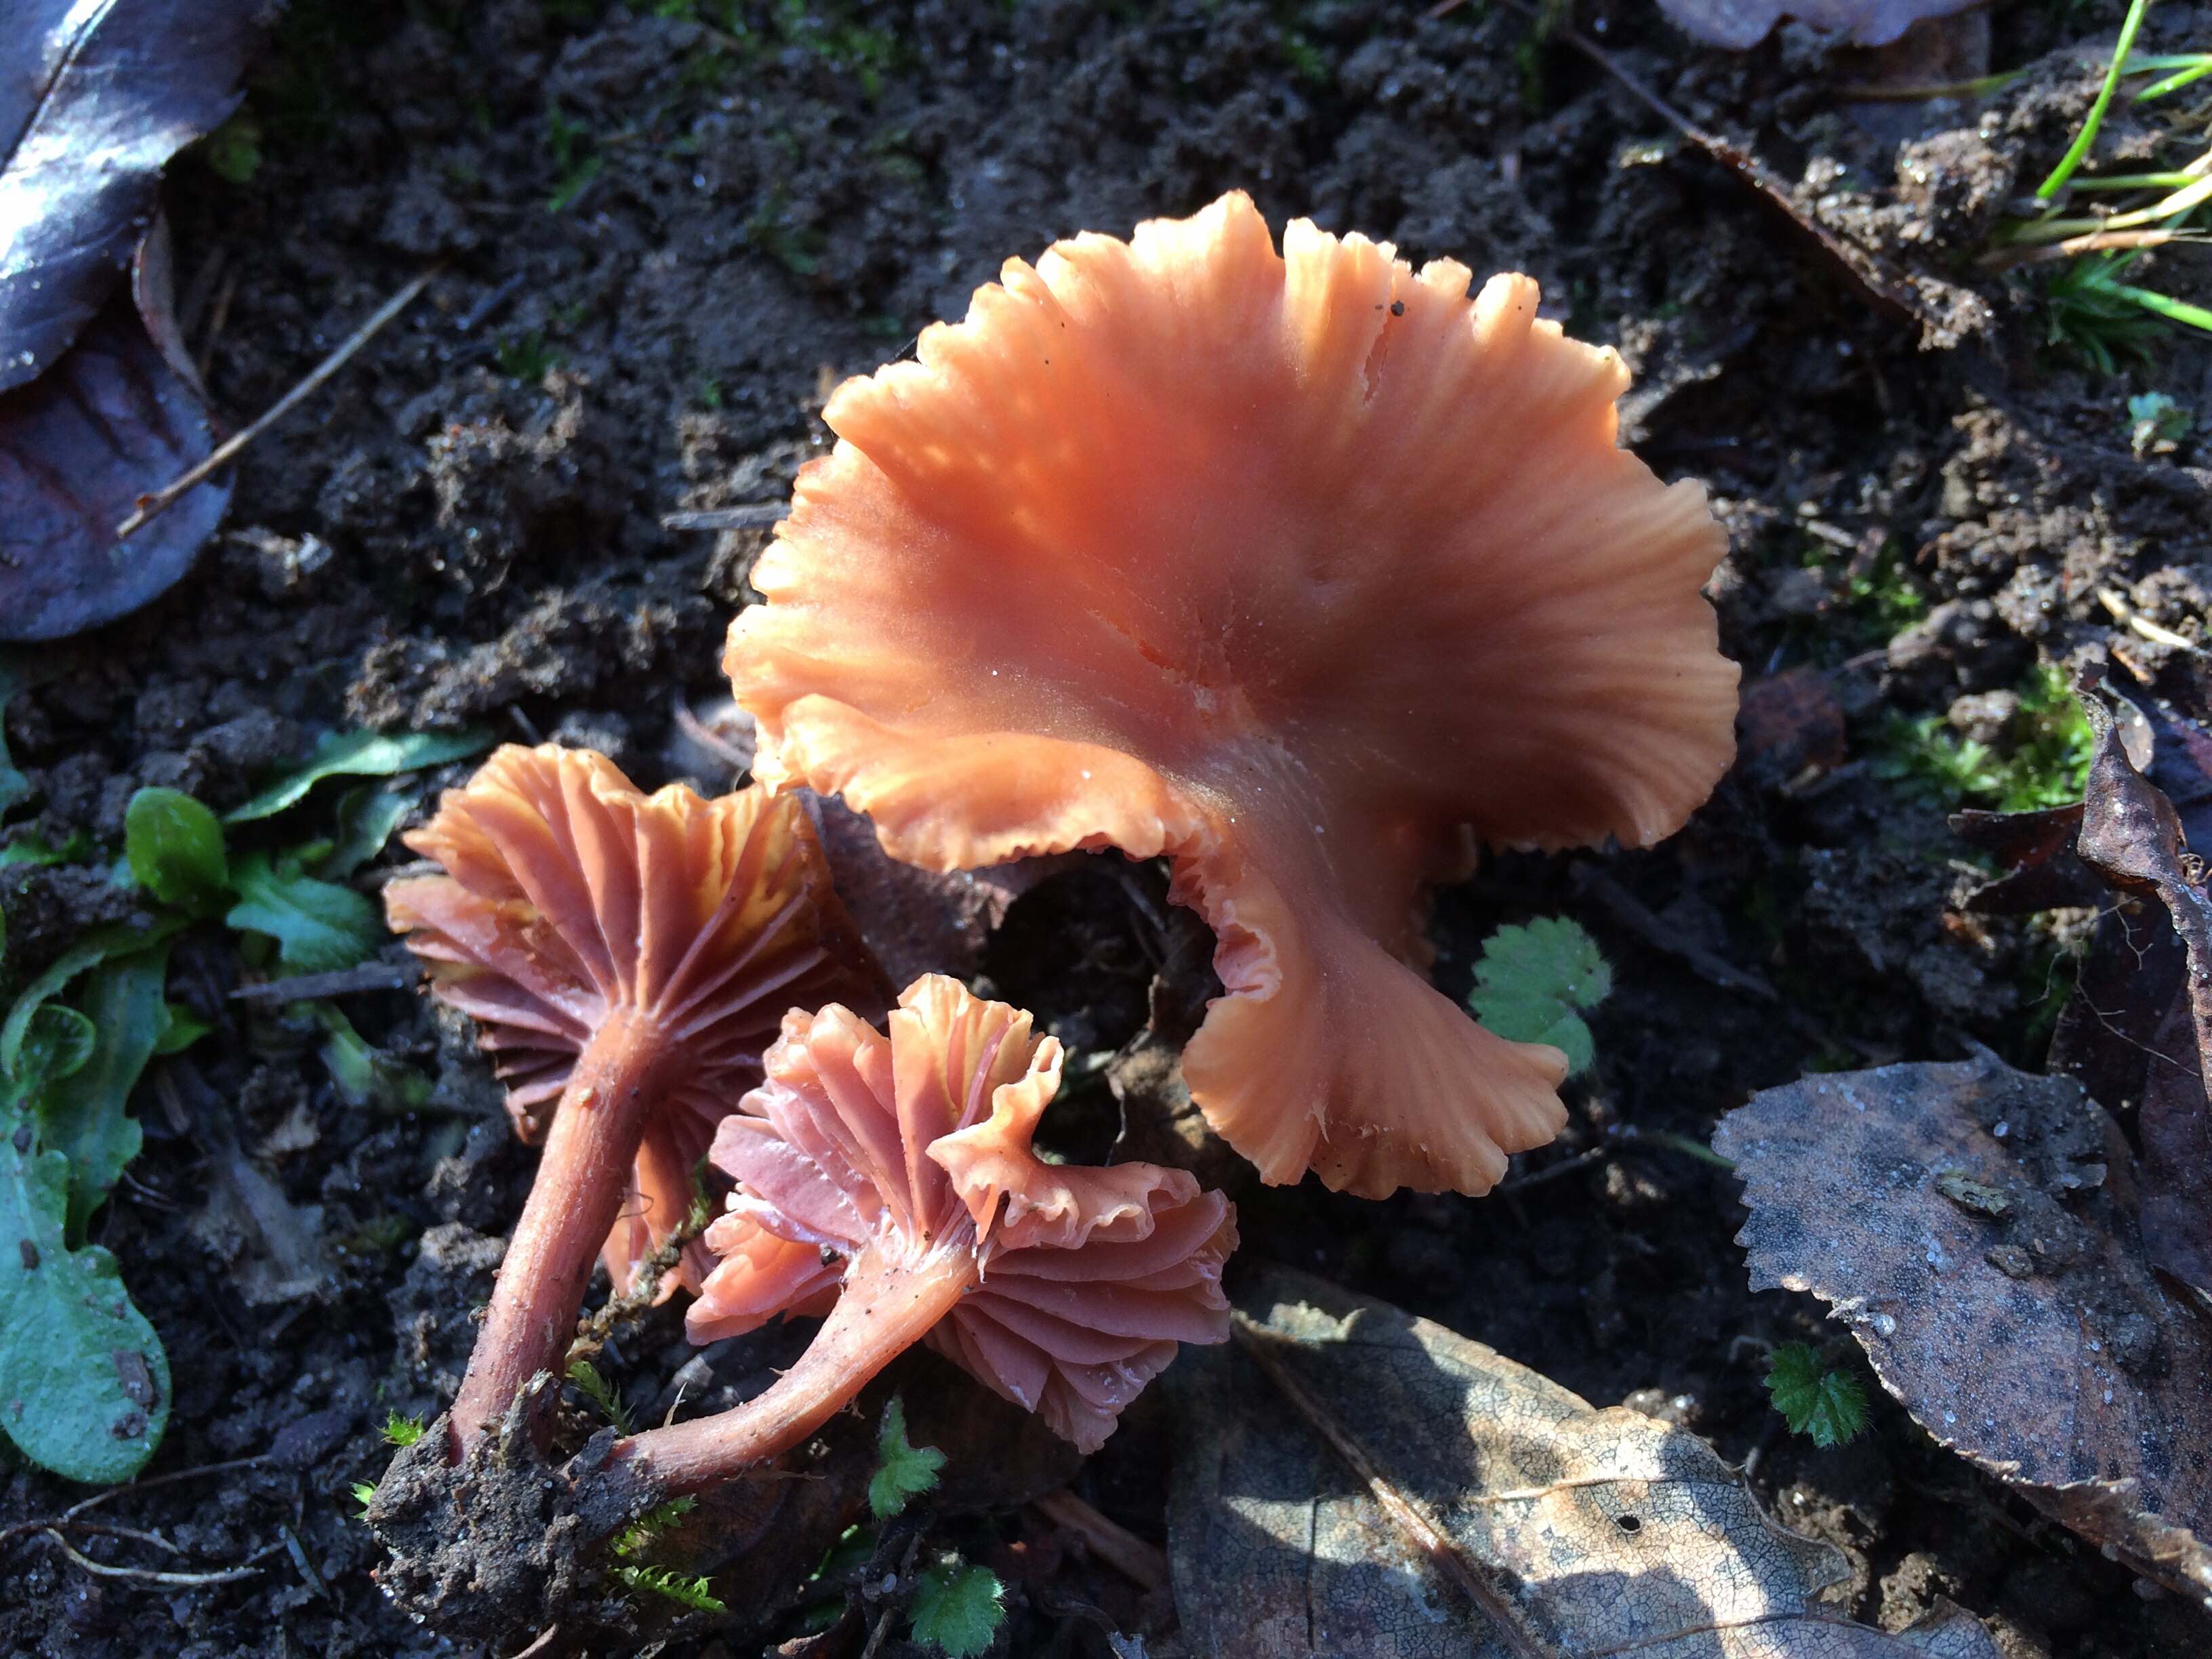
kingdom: Fungi
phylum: Basidiomycota
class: Agaricomycetes
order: Agaricales
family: Hydnangiaceae
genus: Laccaria
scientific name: Laccaria laccata
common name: rød ametysthat
